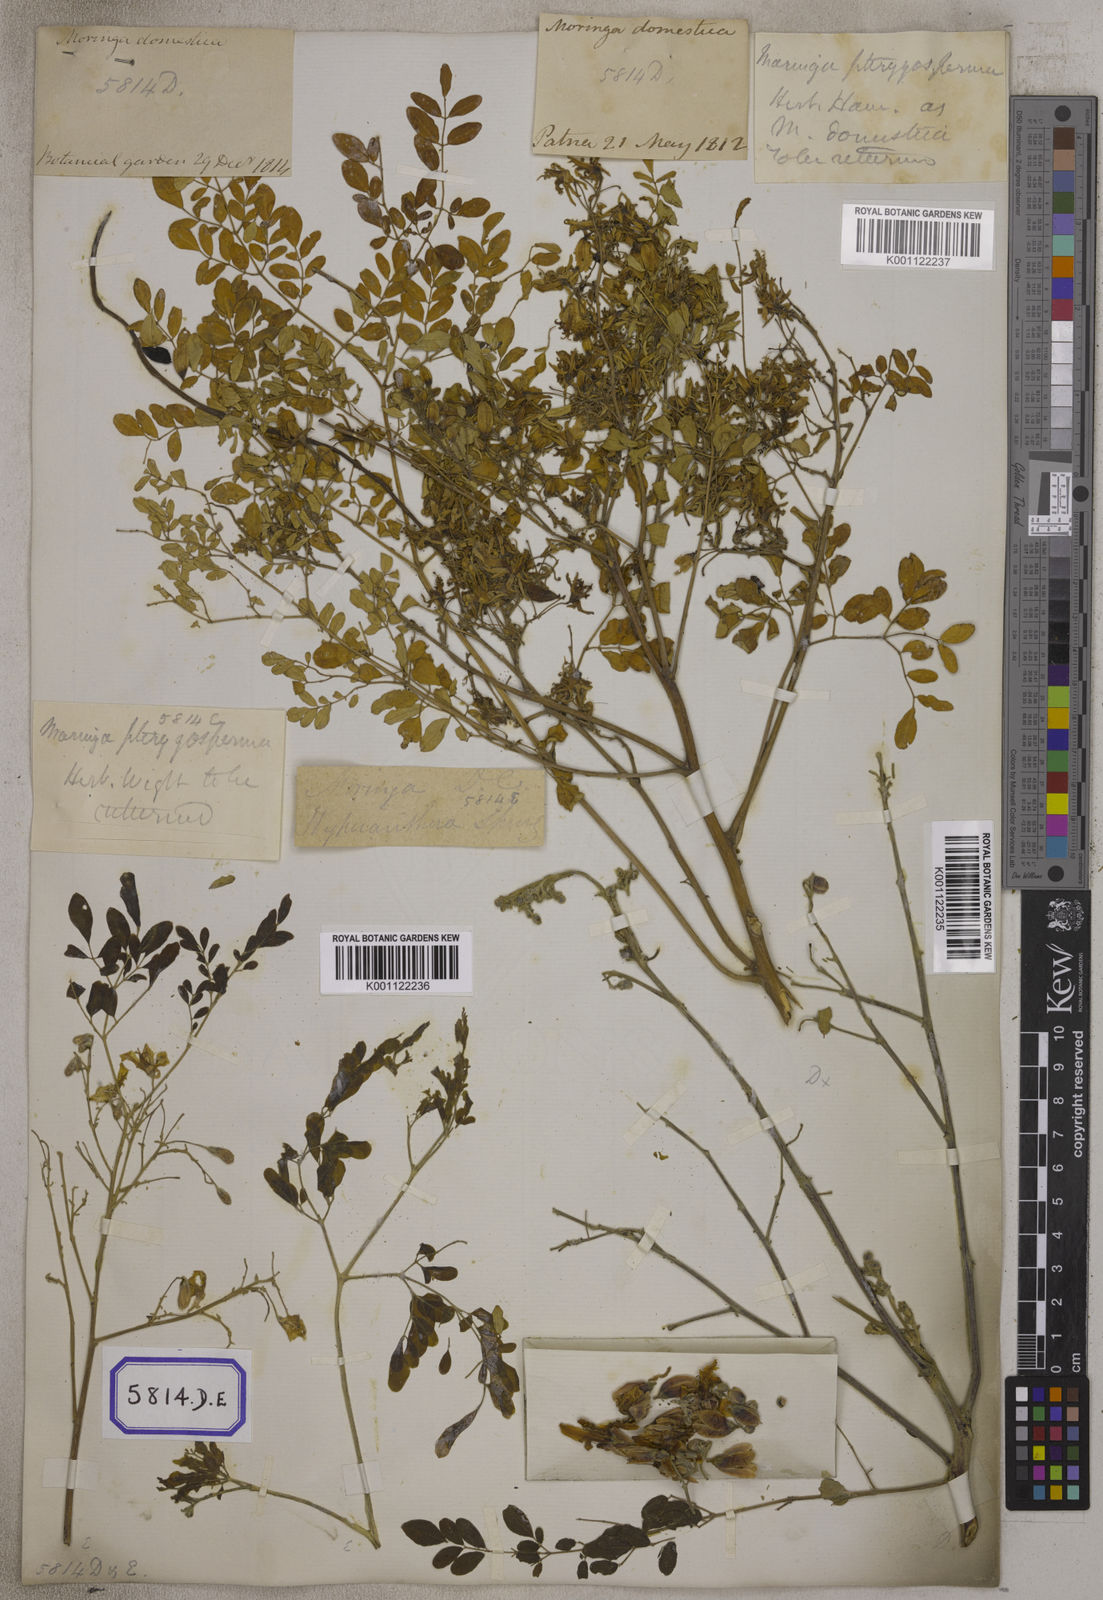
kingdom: Plantae
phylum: Tracheophyta
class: Magnoliopsida
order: Brassicales
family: Moringaceae
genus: Moringa
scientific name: Moringa oleifera
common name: Horseradish-tree
